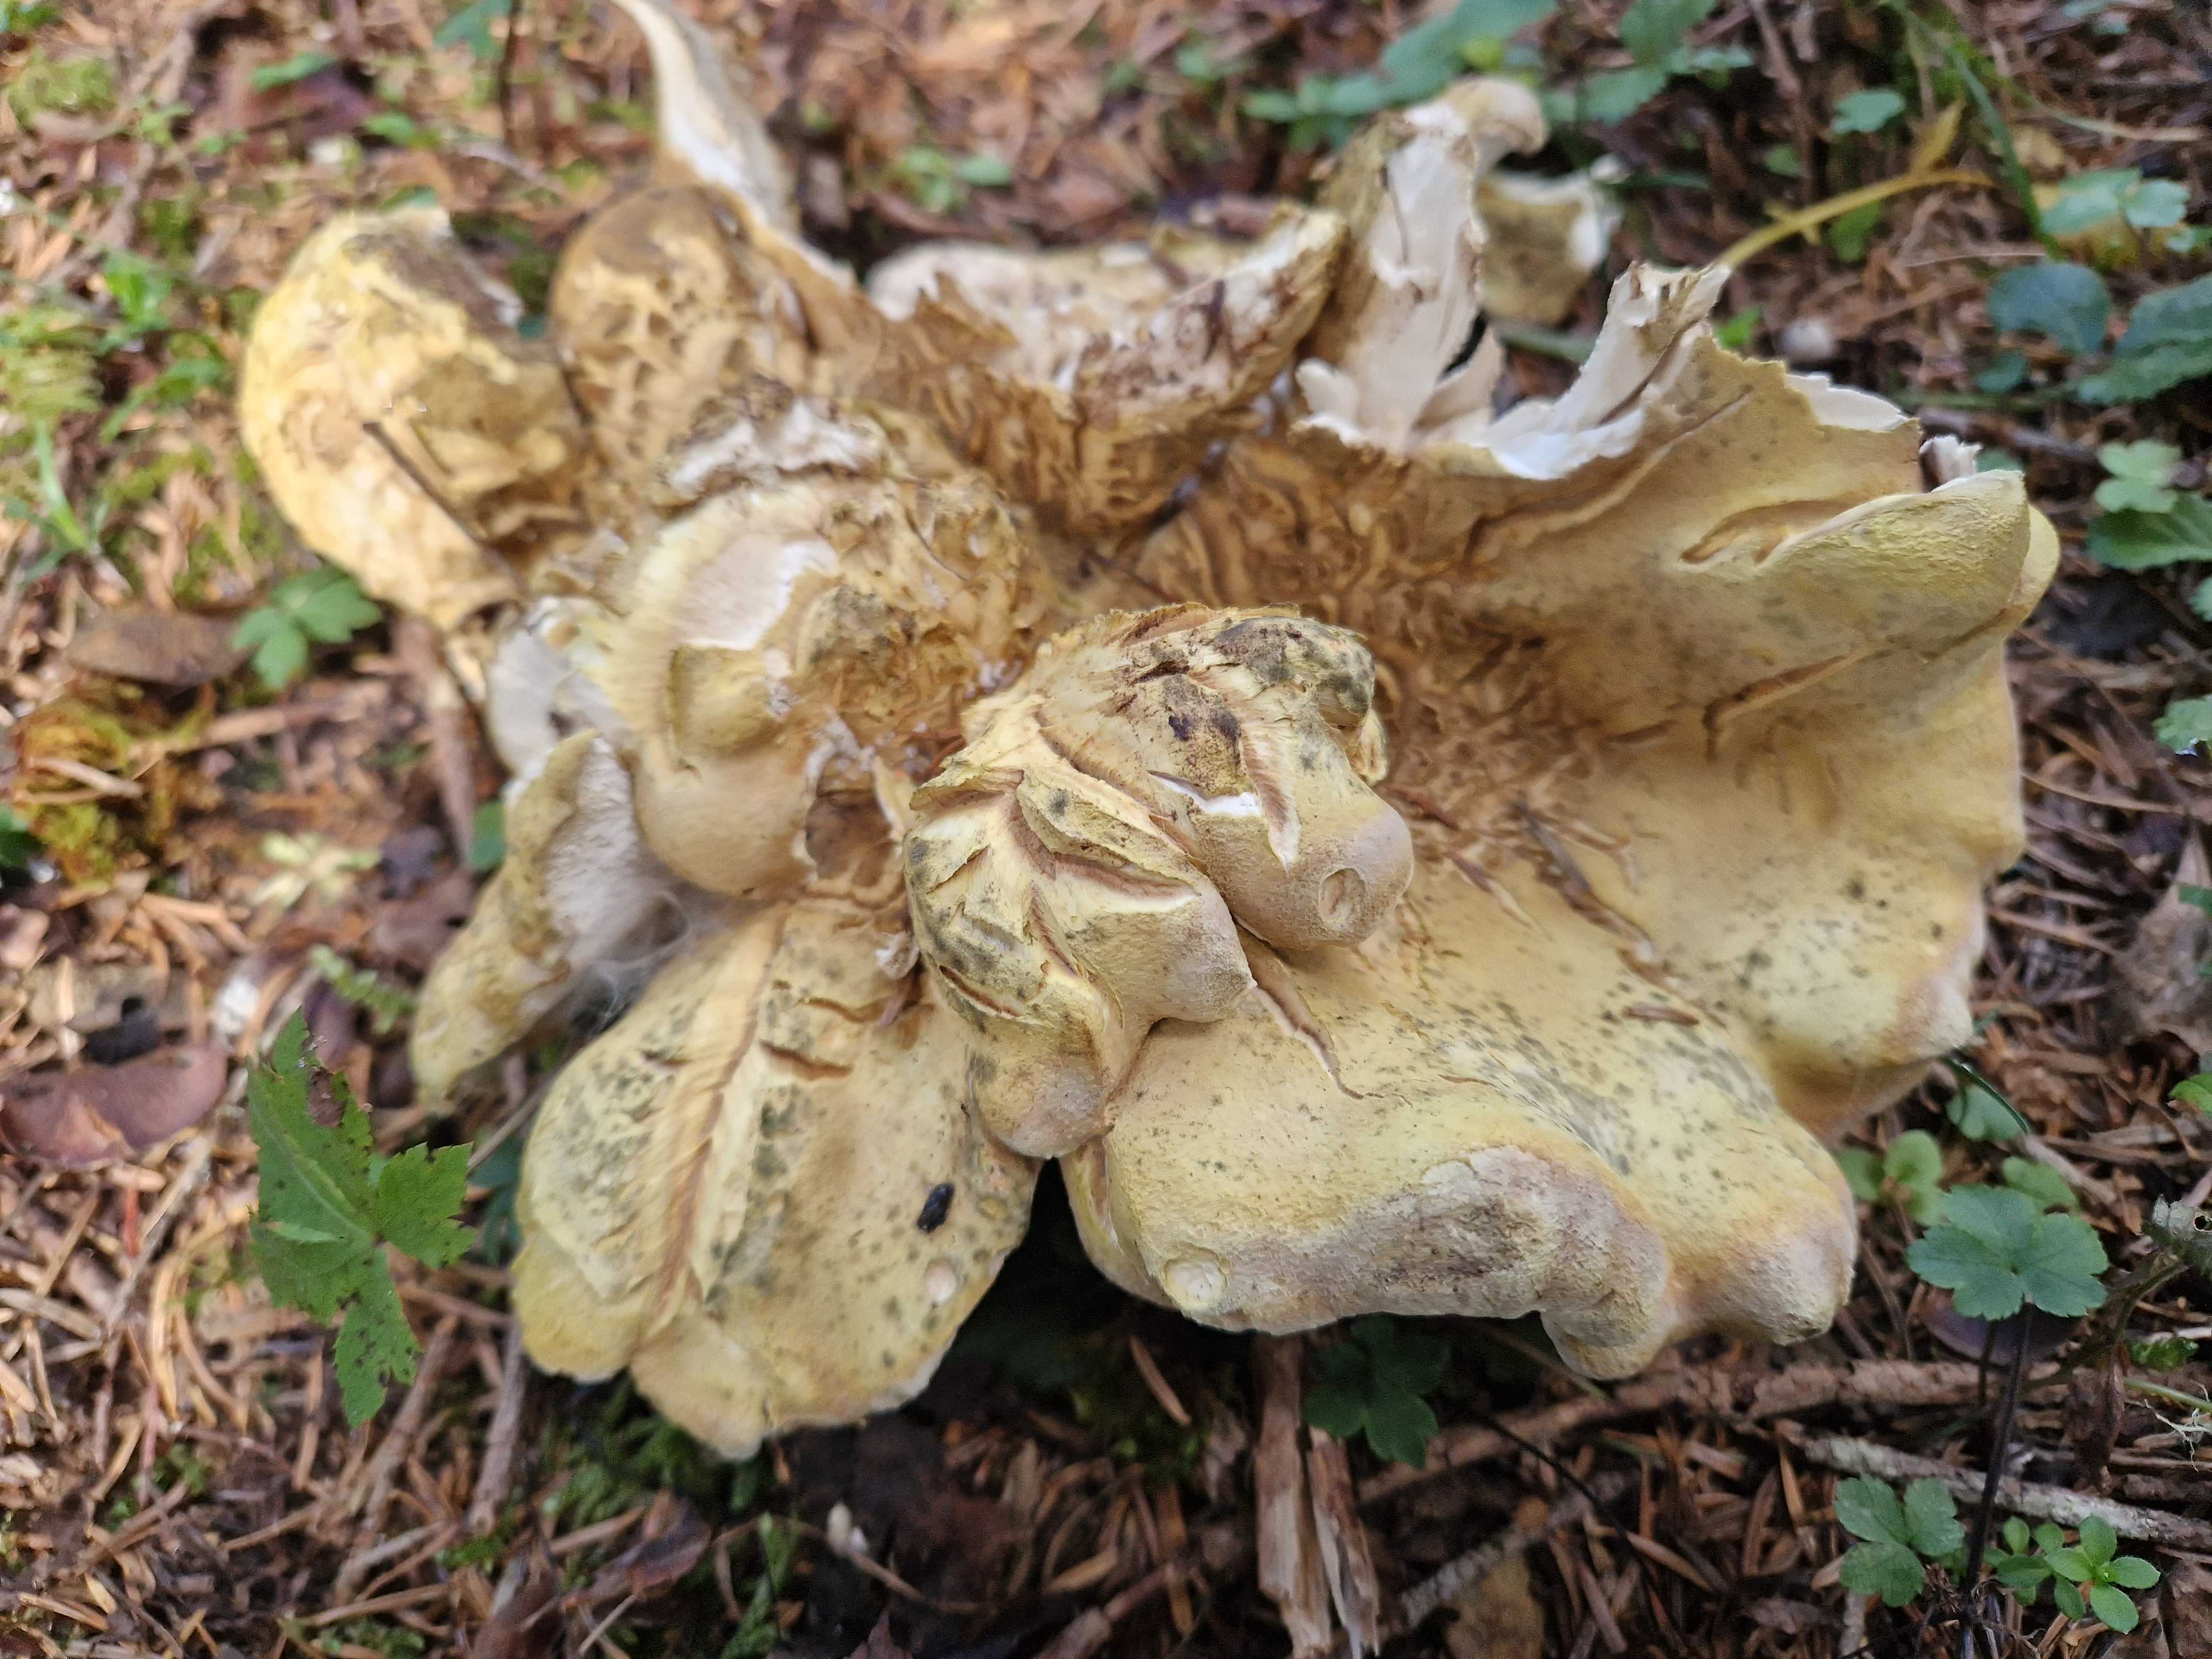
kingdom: Fungi
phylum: Basidiomycota
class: Agaricomycetes
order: Russulales
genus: Laeticutis
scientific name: Laeticutis cristata
